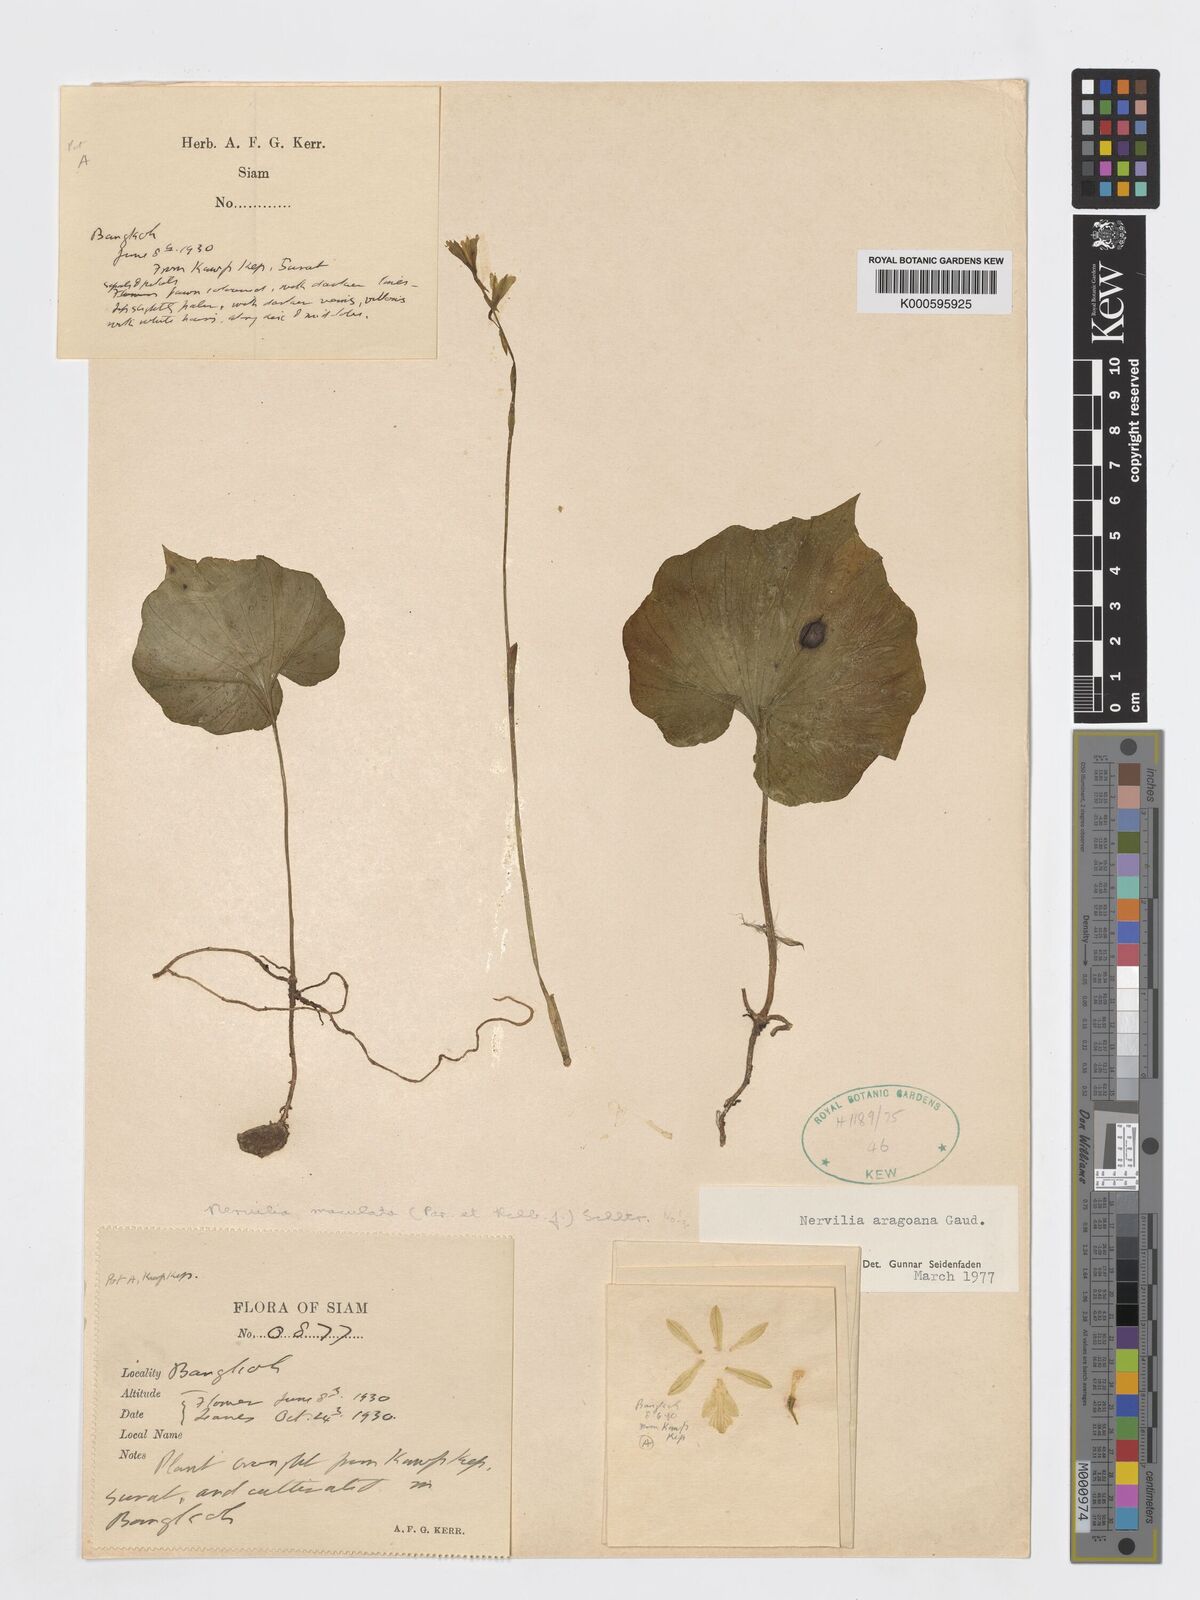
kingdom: Plantae
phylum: Tracheophyta
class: Liliopsida
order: Asparagales
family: Orchidaceae
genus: Nervilia
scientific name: Nervilia concolor
